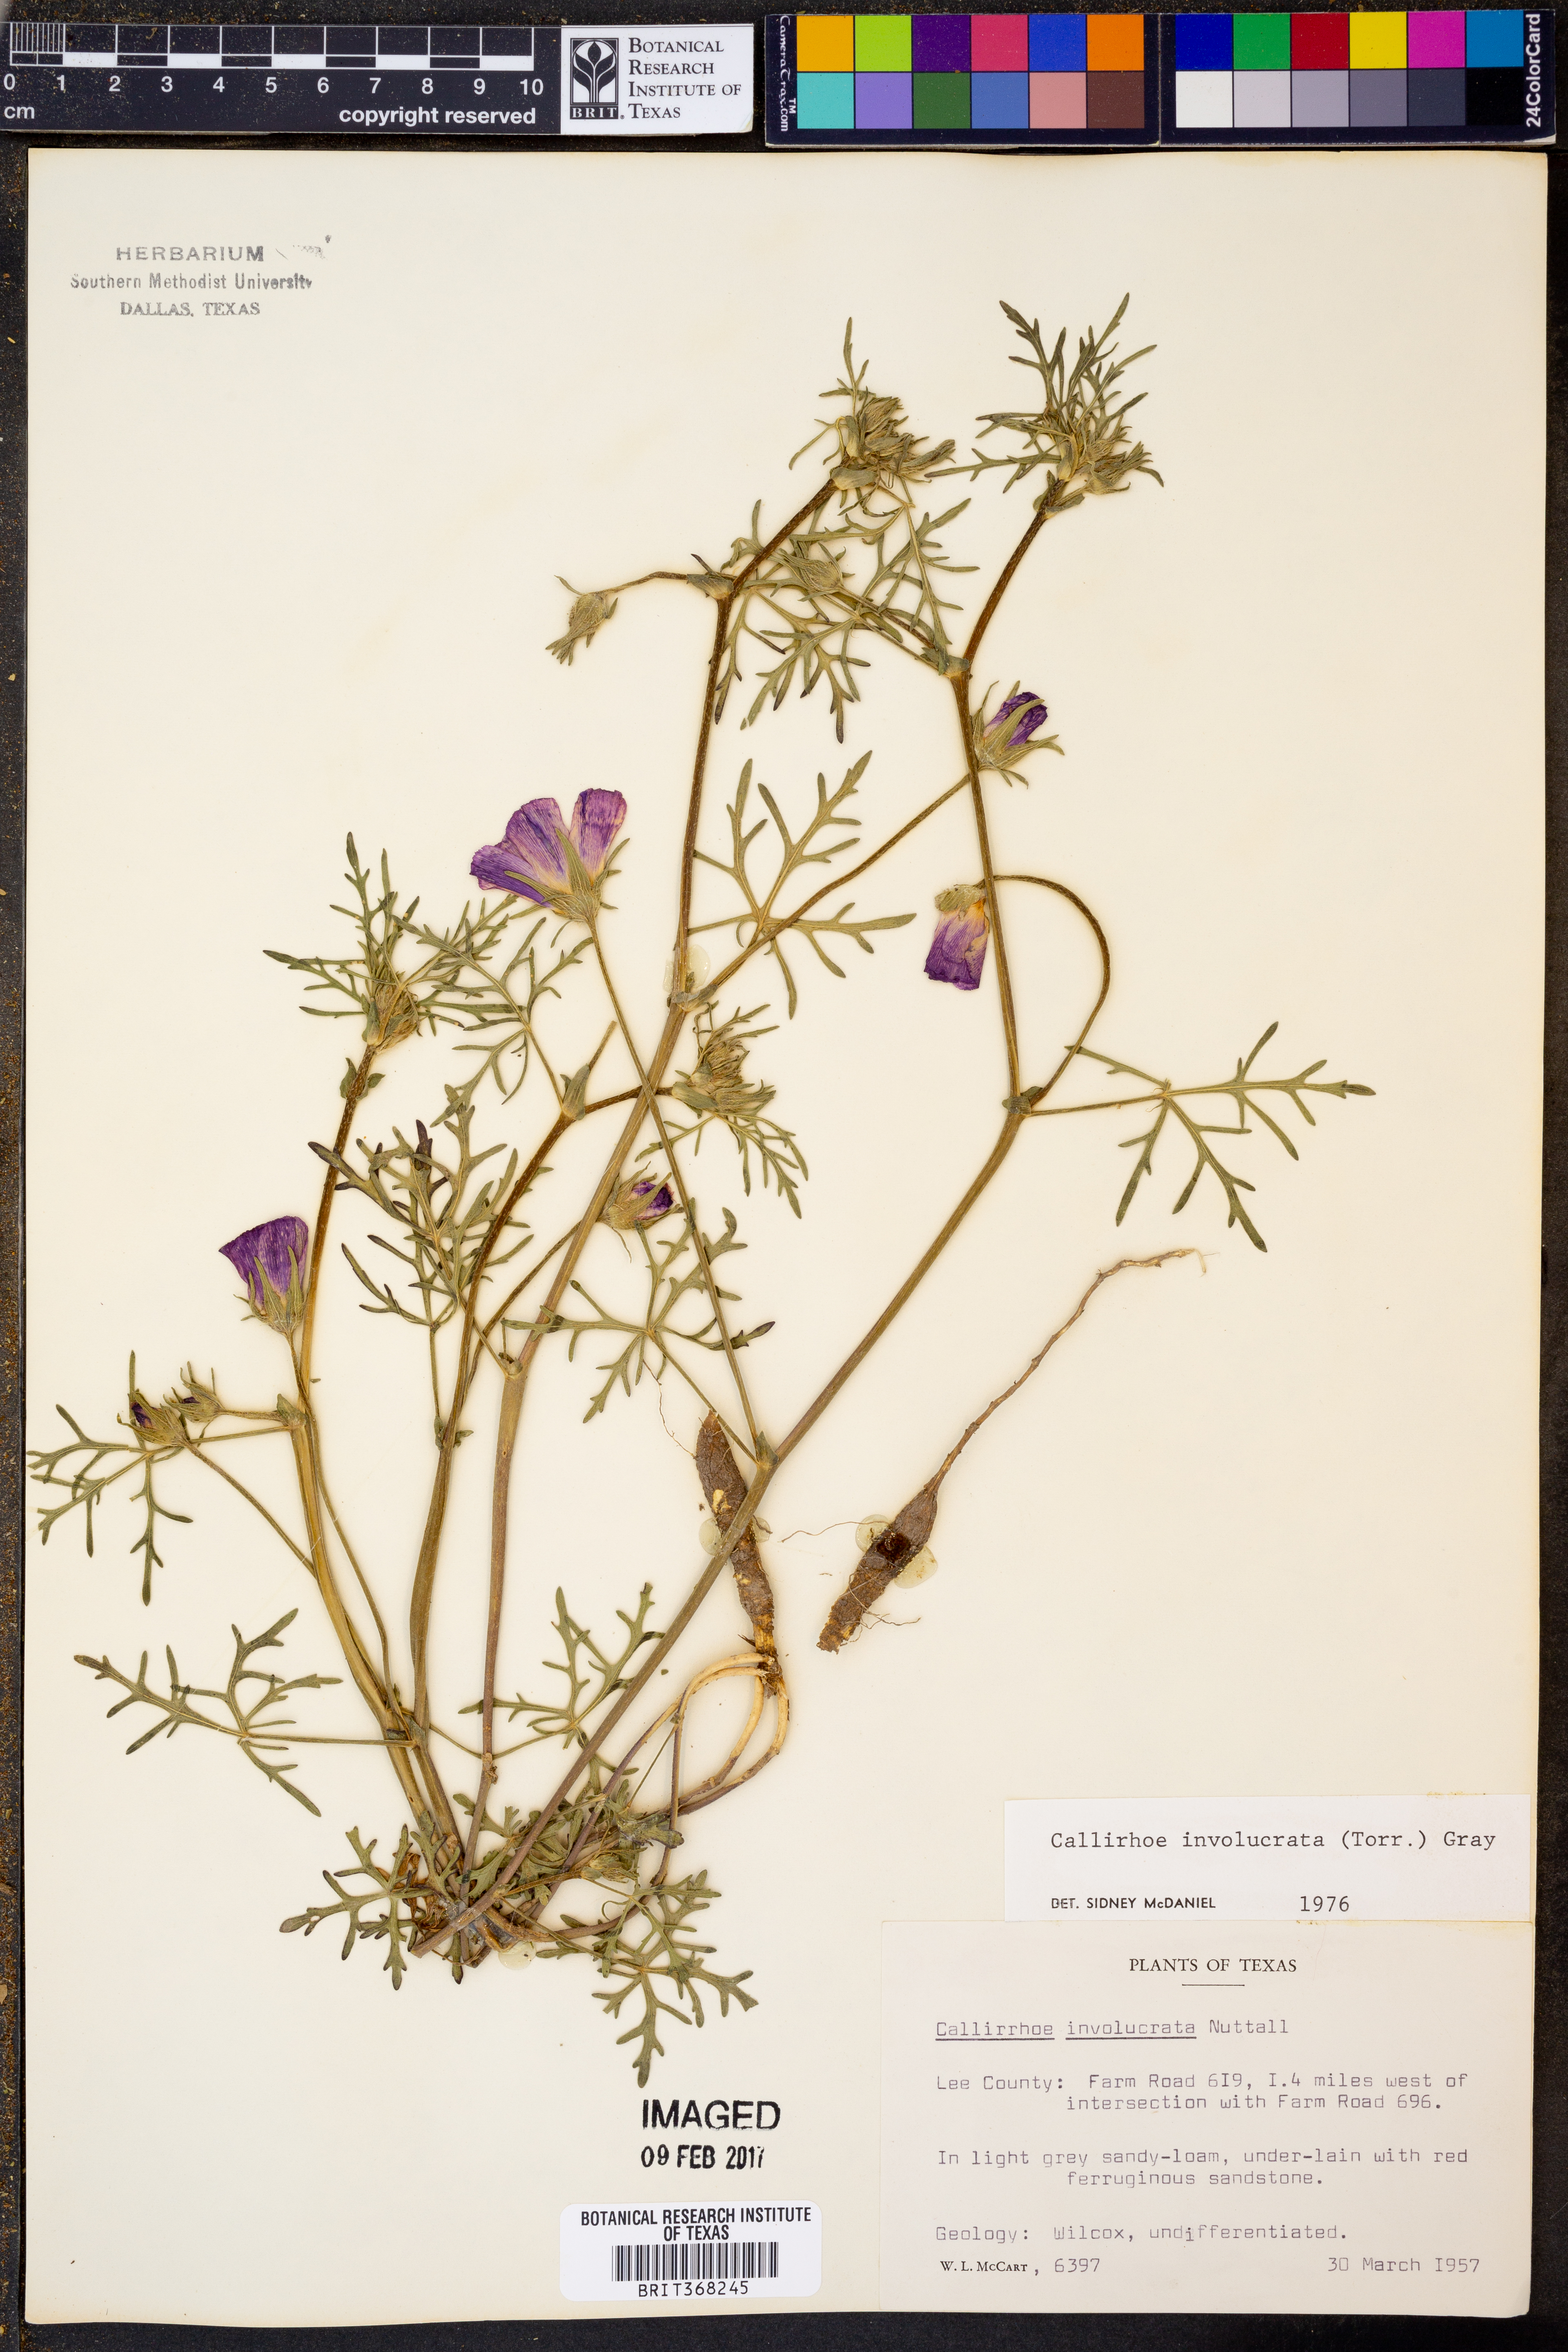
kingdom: Plantae
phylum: Tracheophyta
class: Magnoliopsida
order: Malvales
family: Malvaceae
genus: Callirhoe
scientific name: Callirhoe involucrata
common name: Purple poppy-mallow
